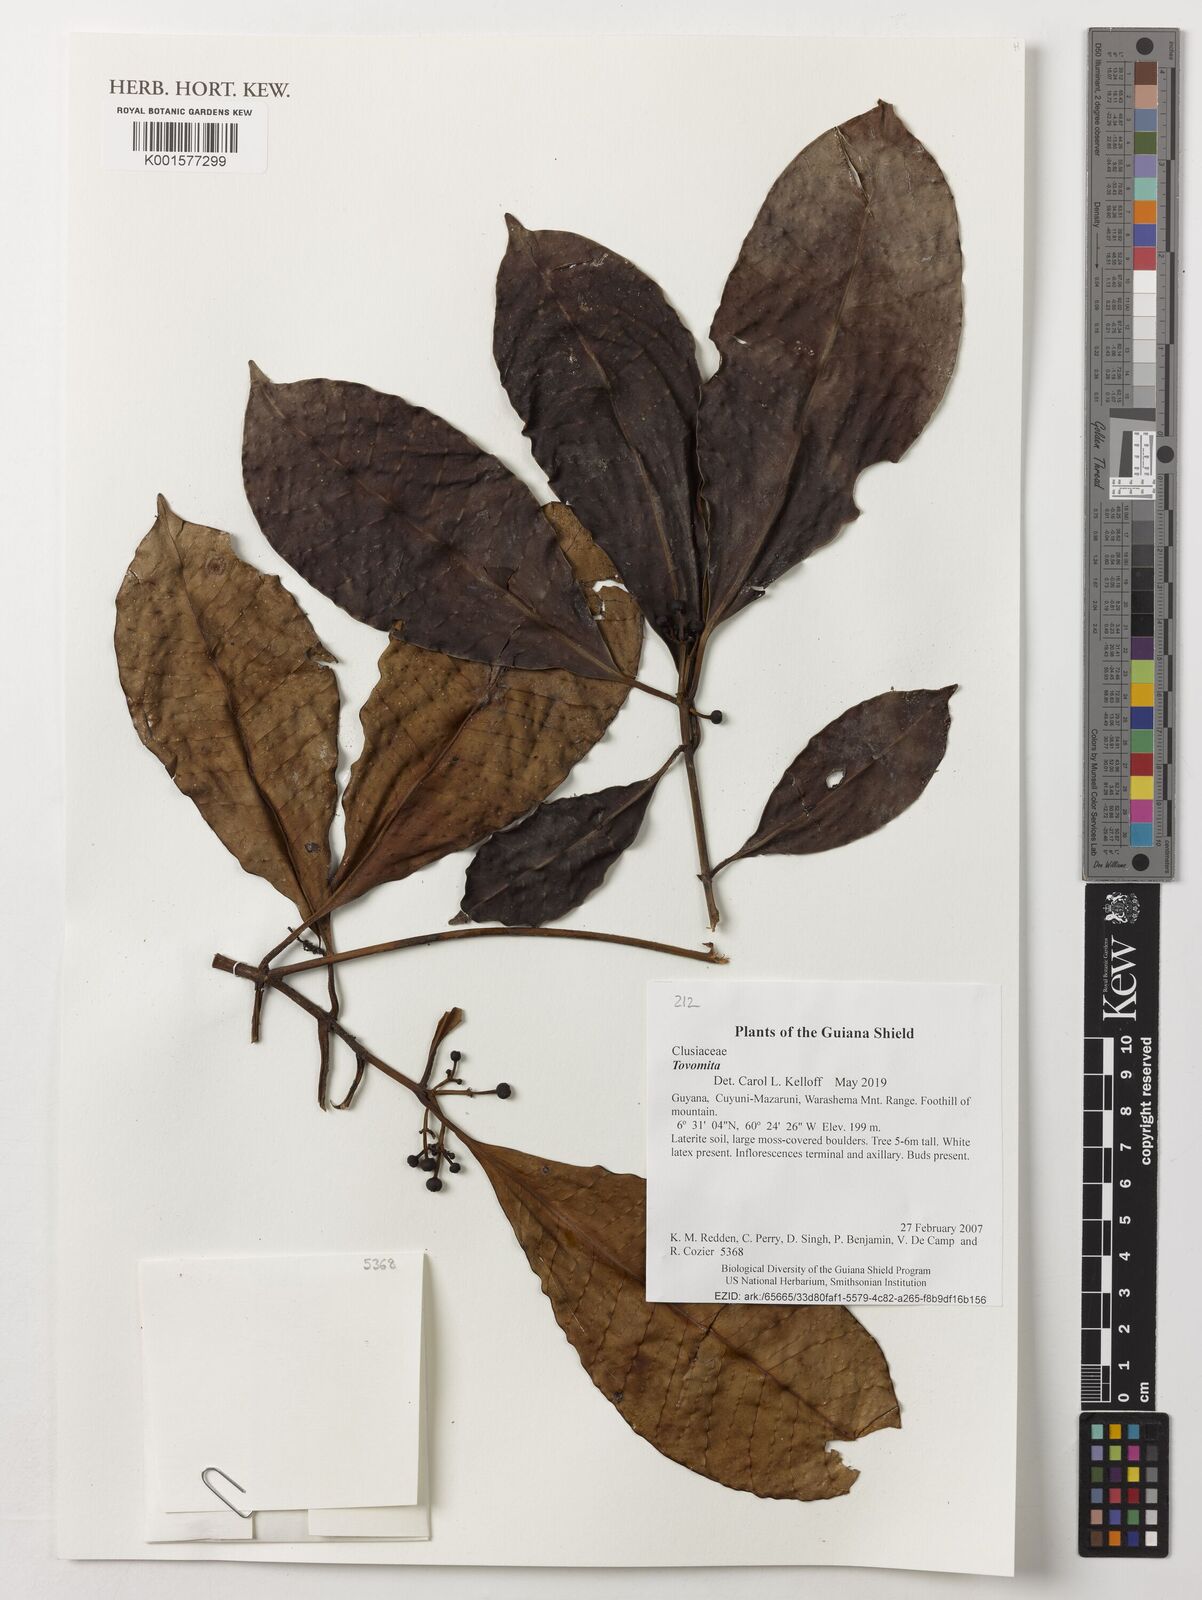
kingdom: Plantae
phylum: Tracheophyta
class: Magnoliopsida
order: Malpighiales
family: Clusiaceae
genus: Tovomita
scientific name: Tovomita
